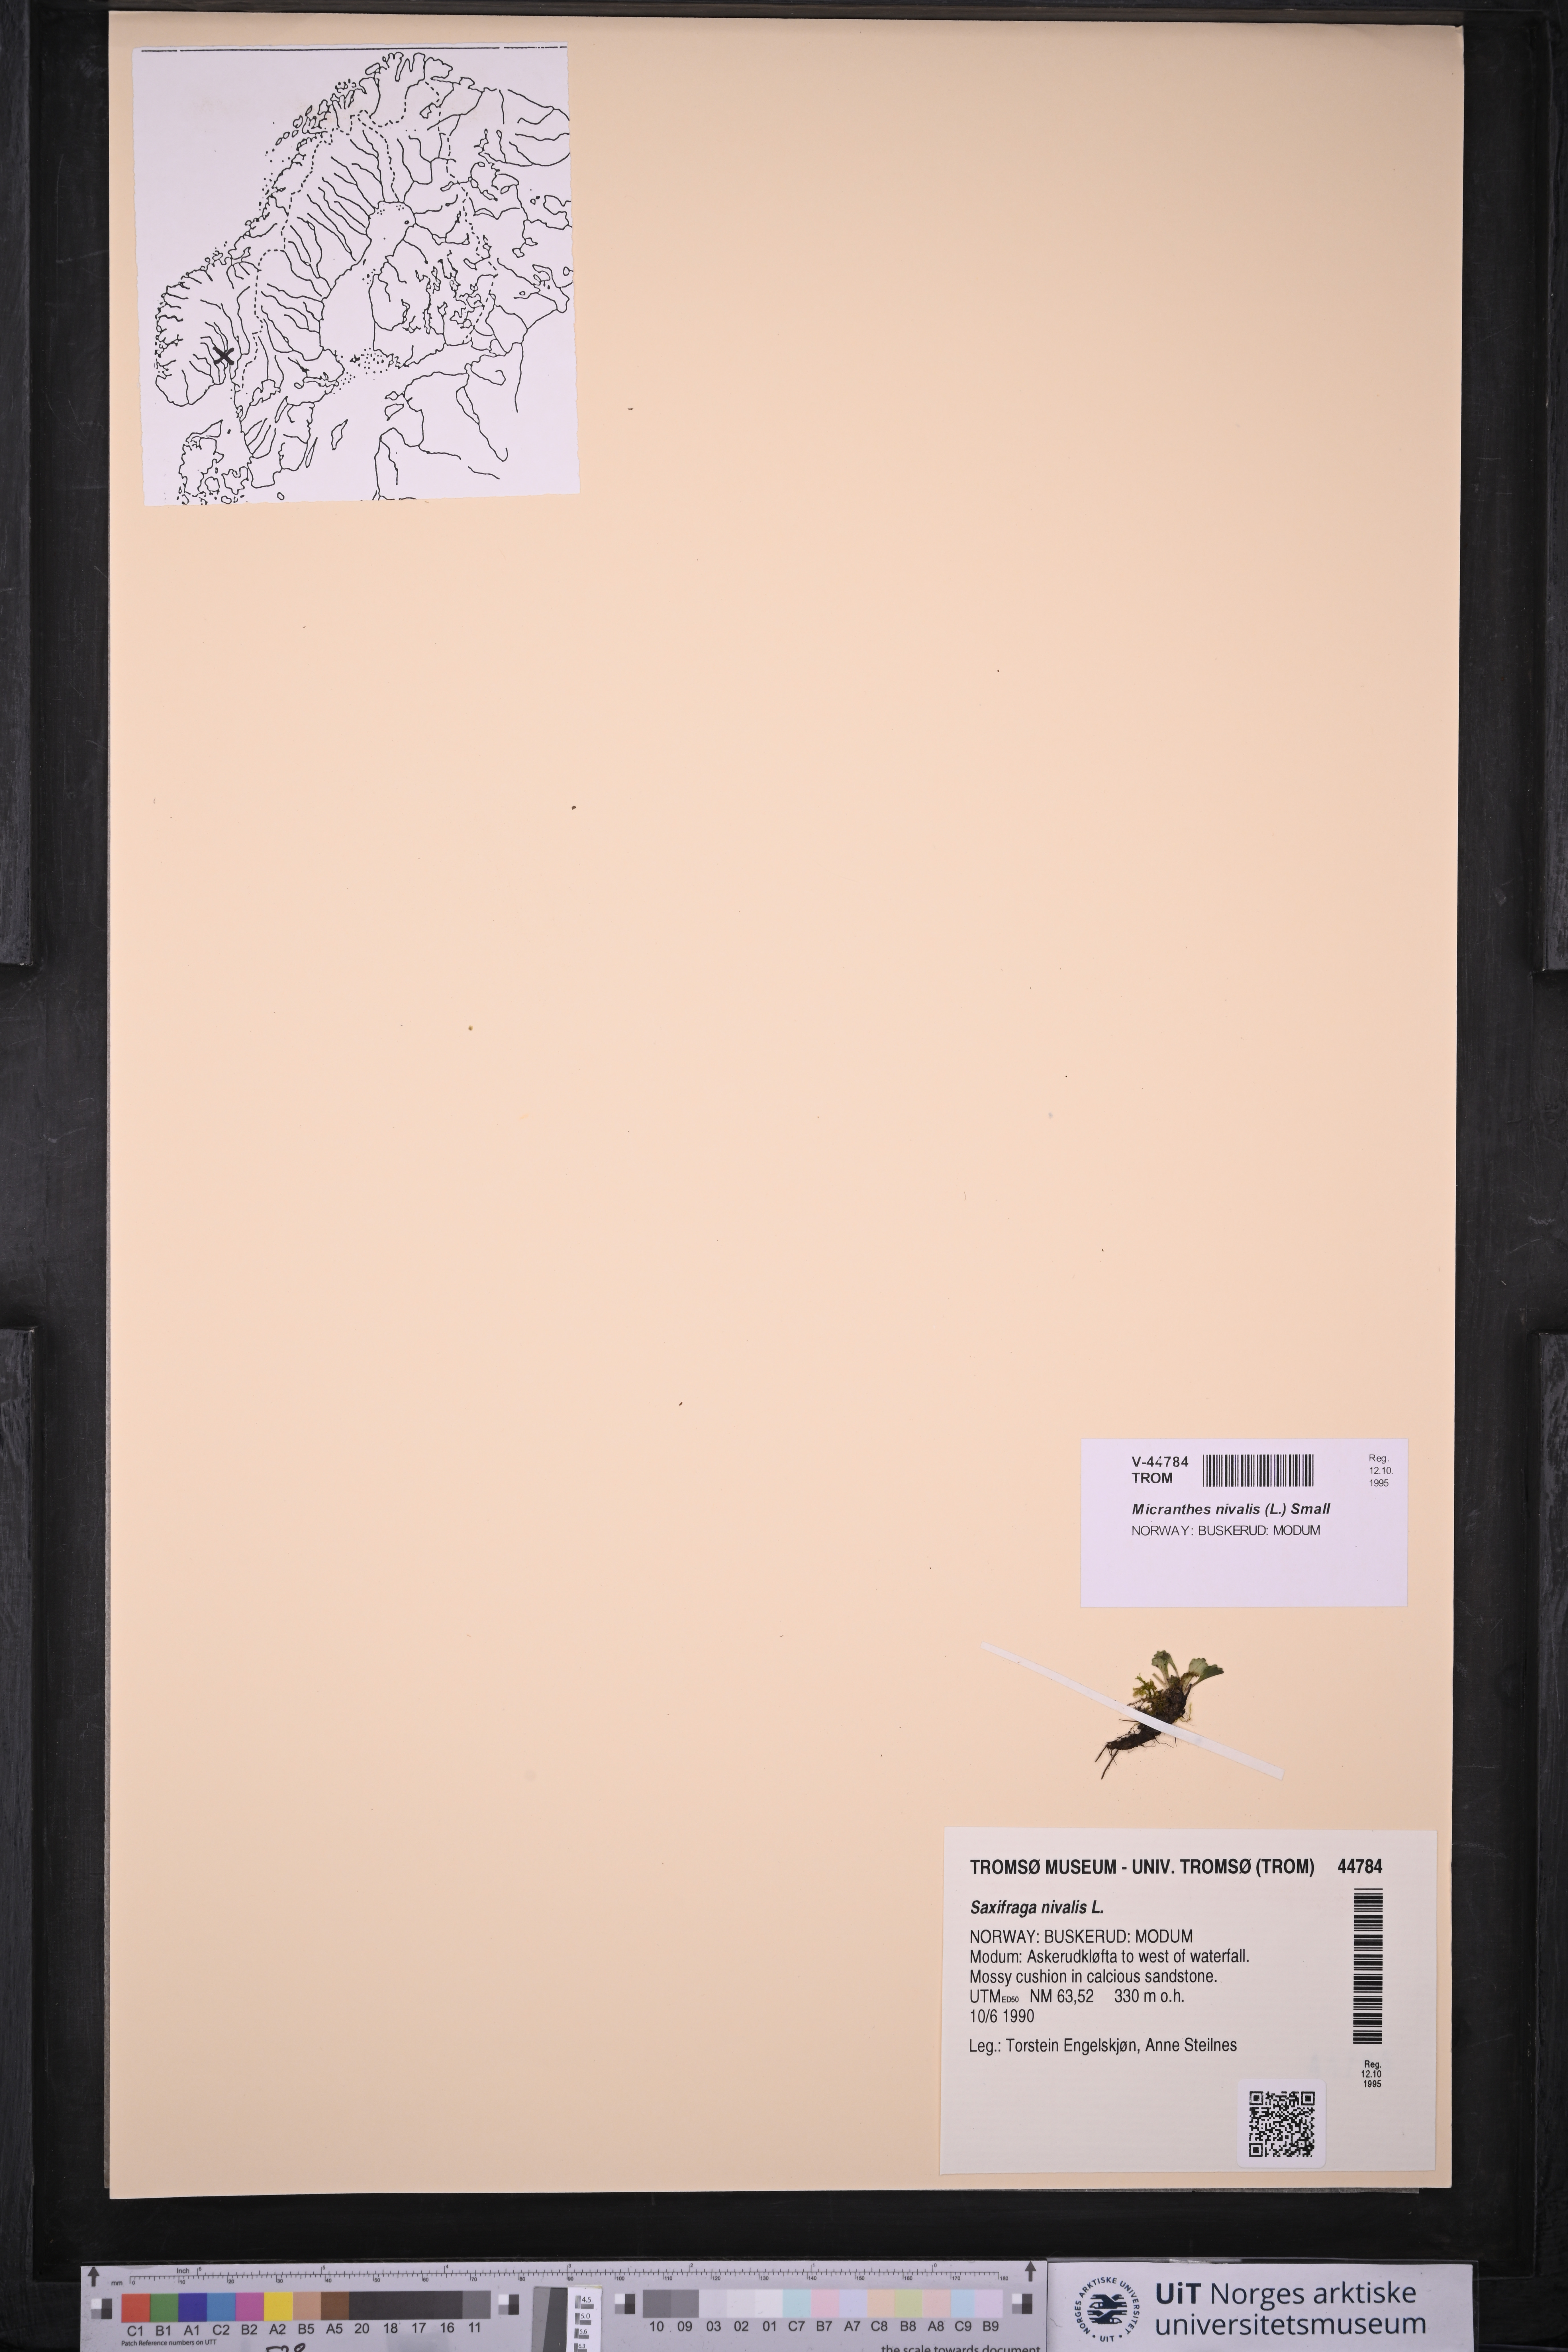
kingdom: Plantae
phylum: Tracheophyta
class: Magnoliopsida
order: Saxifragales
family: Saxifragaceae
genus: Micranthes
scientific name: Micranthes nivalis
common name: Alpine saxifrage
